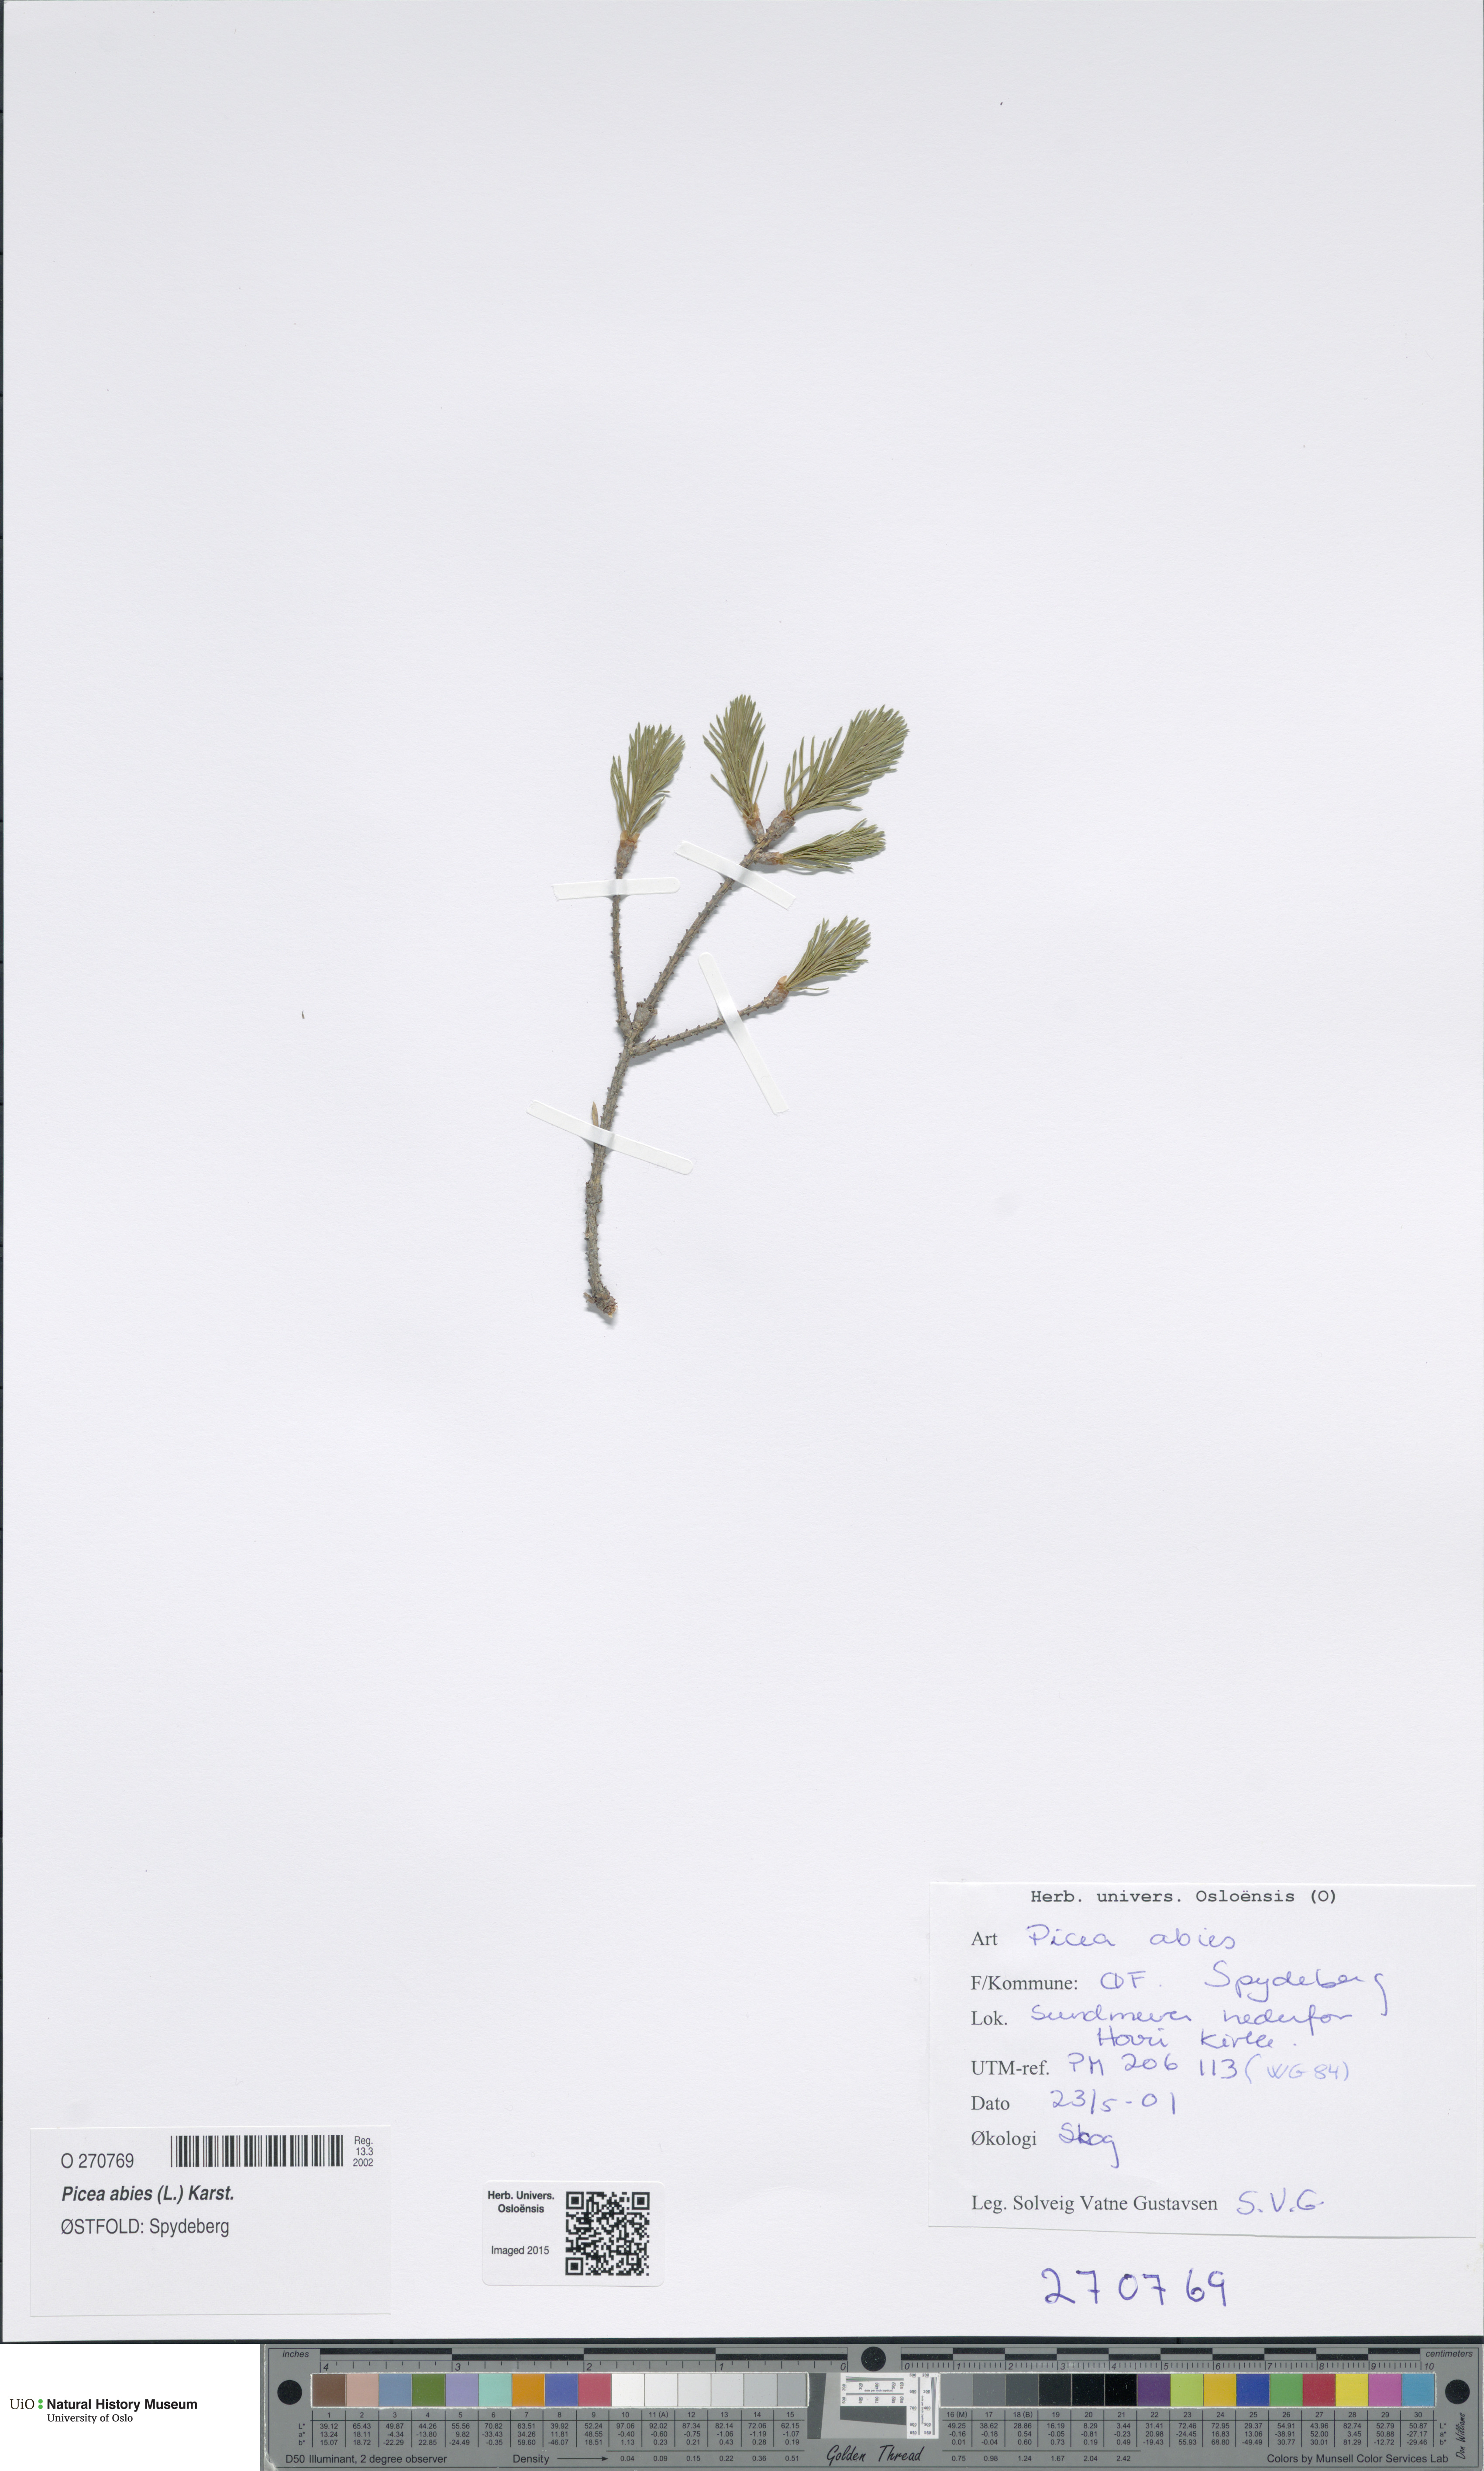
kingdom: Plantae
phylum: Tracheophyta
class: Pinopsida
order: Pinales
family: Pinaceae
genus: Picea
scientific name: Picea abies
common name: Norway spruce
